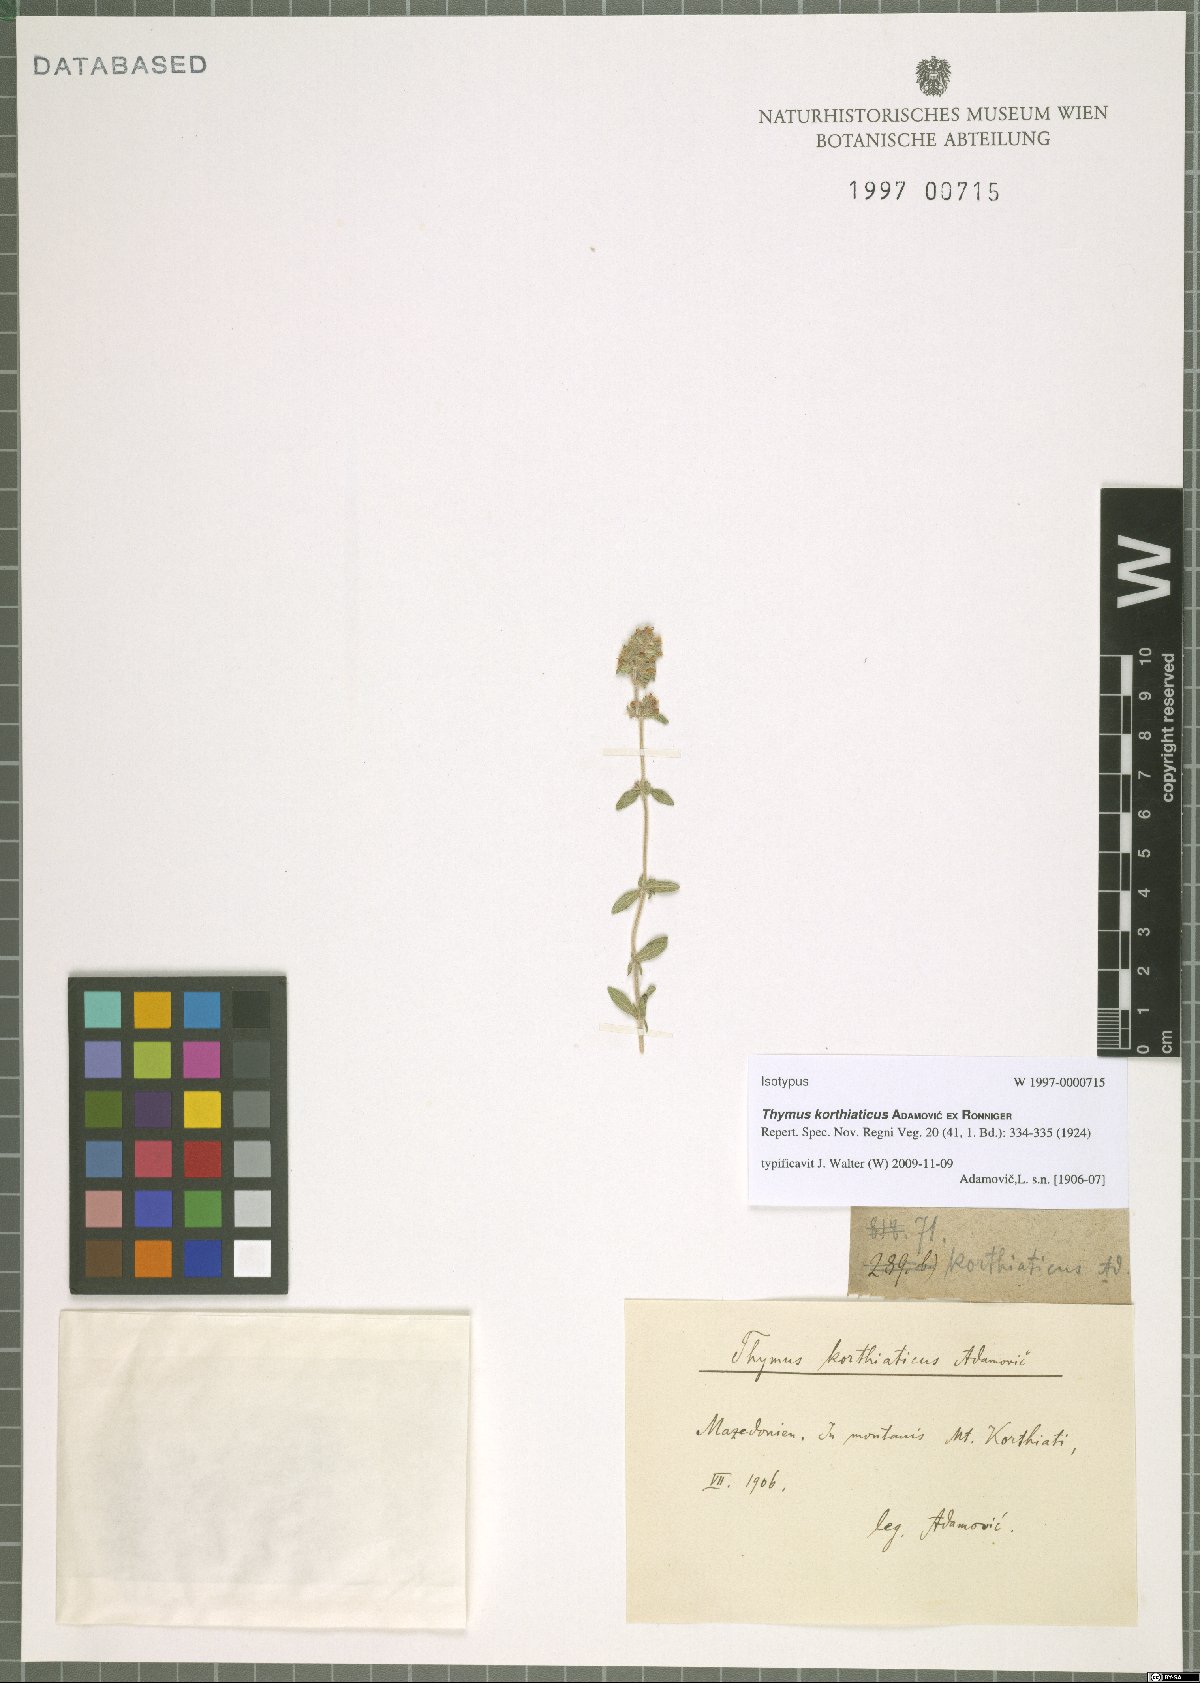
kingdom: Plantae
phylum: Tracheophyta
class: Magnoliopsida
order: Lamiales
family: Lamiaceae
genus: Thymus
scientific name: Thymus sibthorpii
